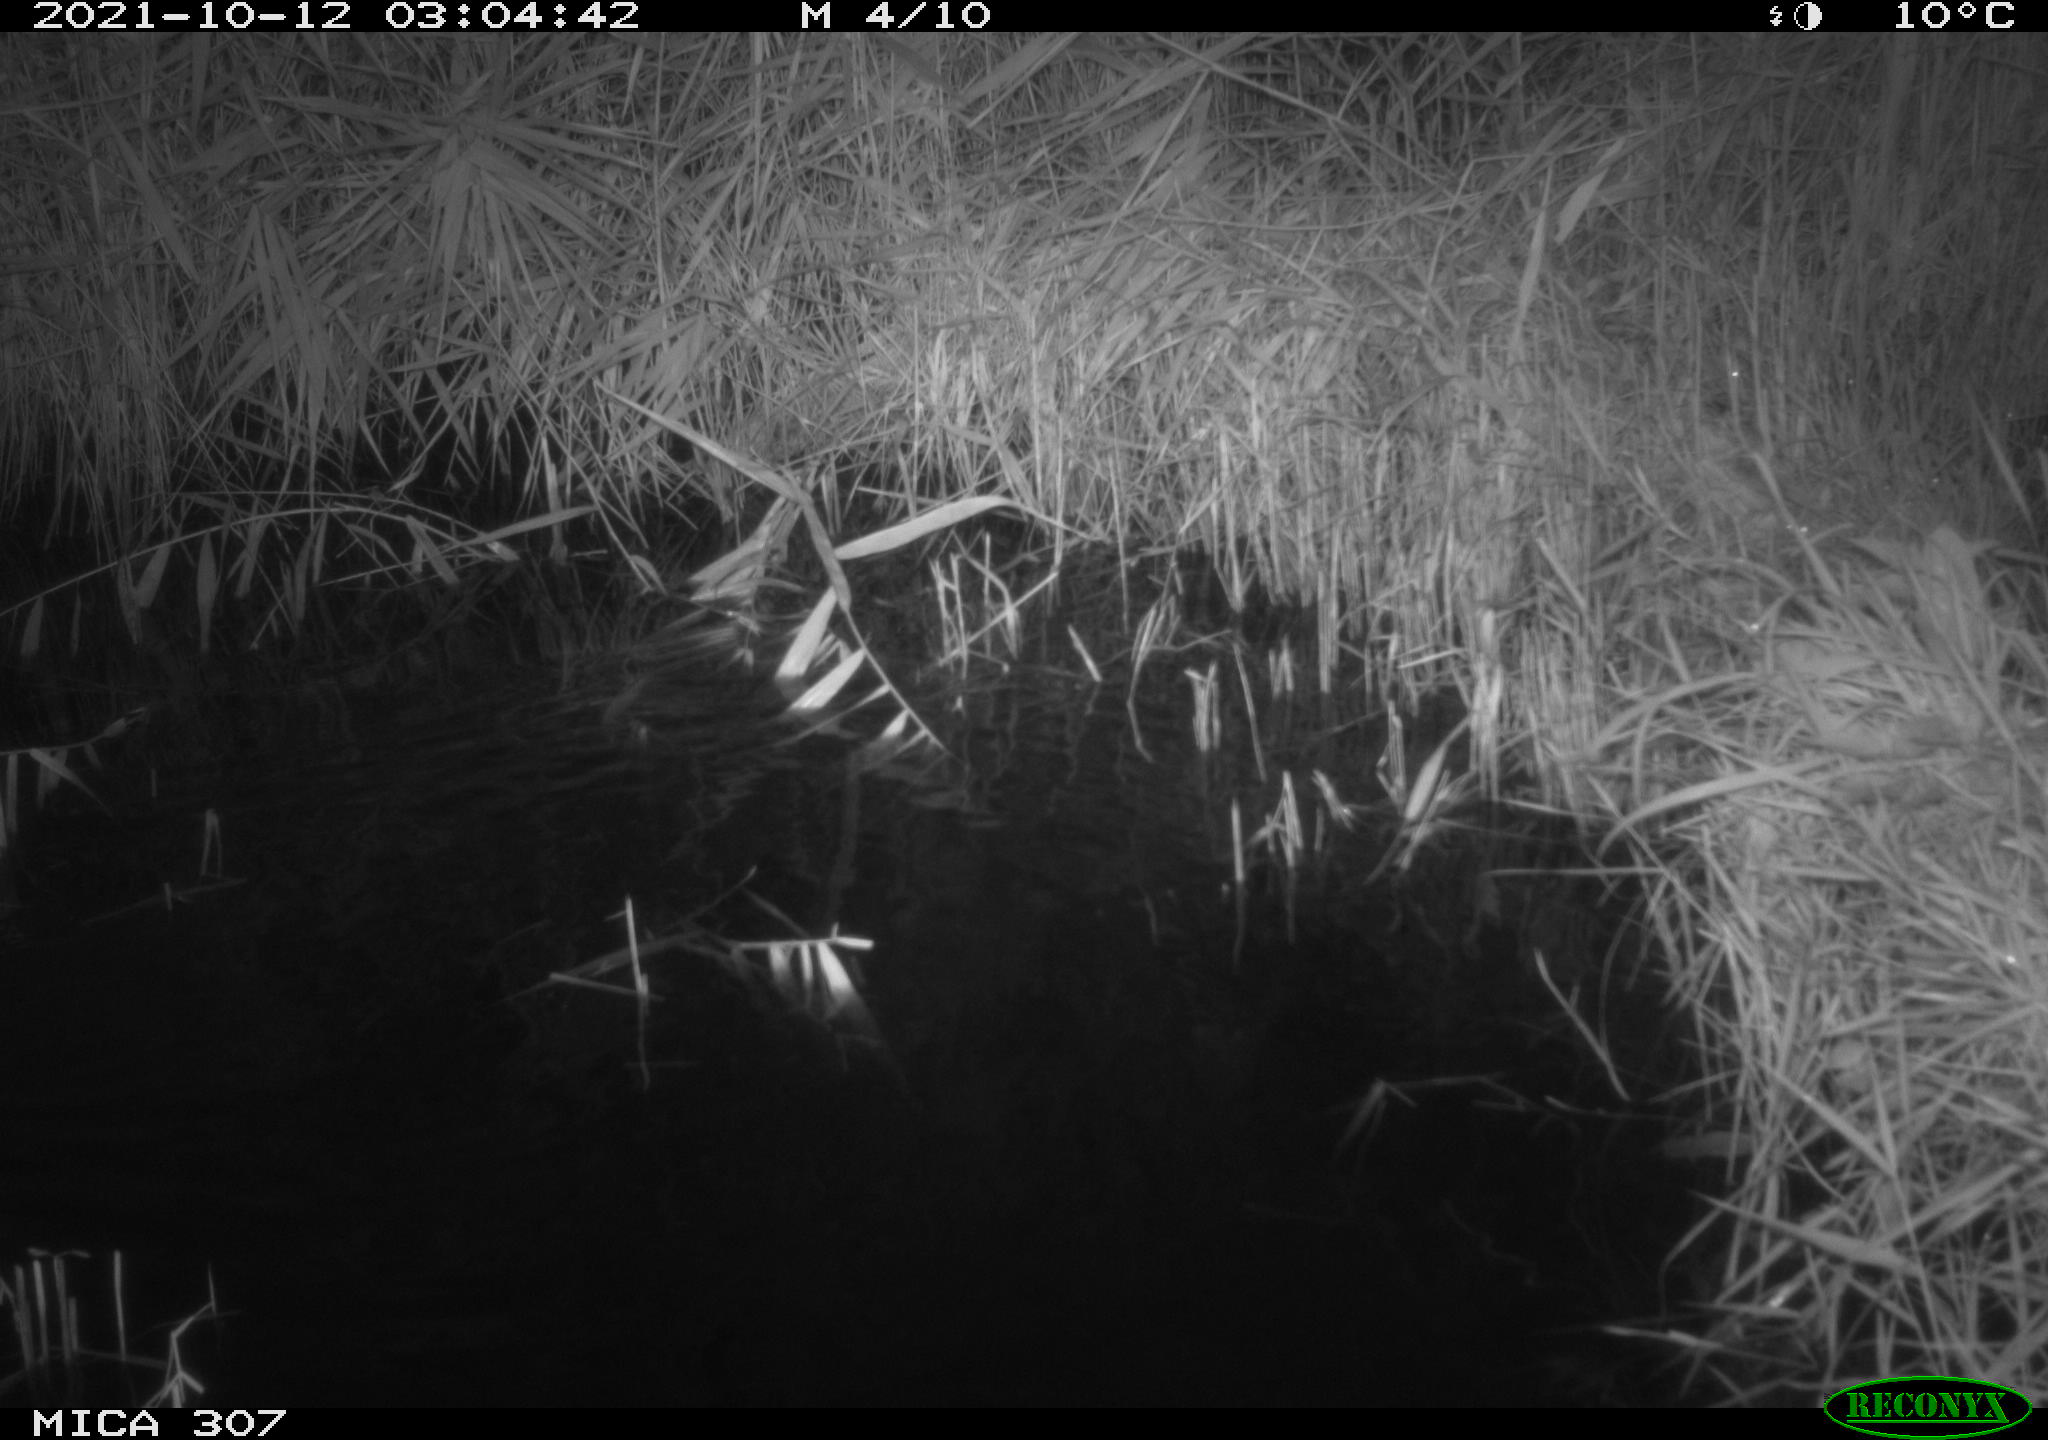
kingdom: Animalia
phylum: Chordata
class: Mammalia
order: Rodentia
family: Muridae
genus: Rattus
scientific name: Rattus norvegicus
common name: Brown rat
